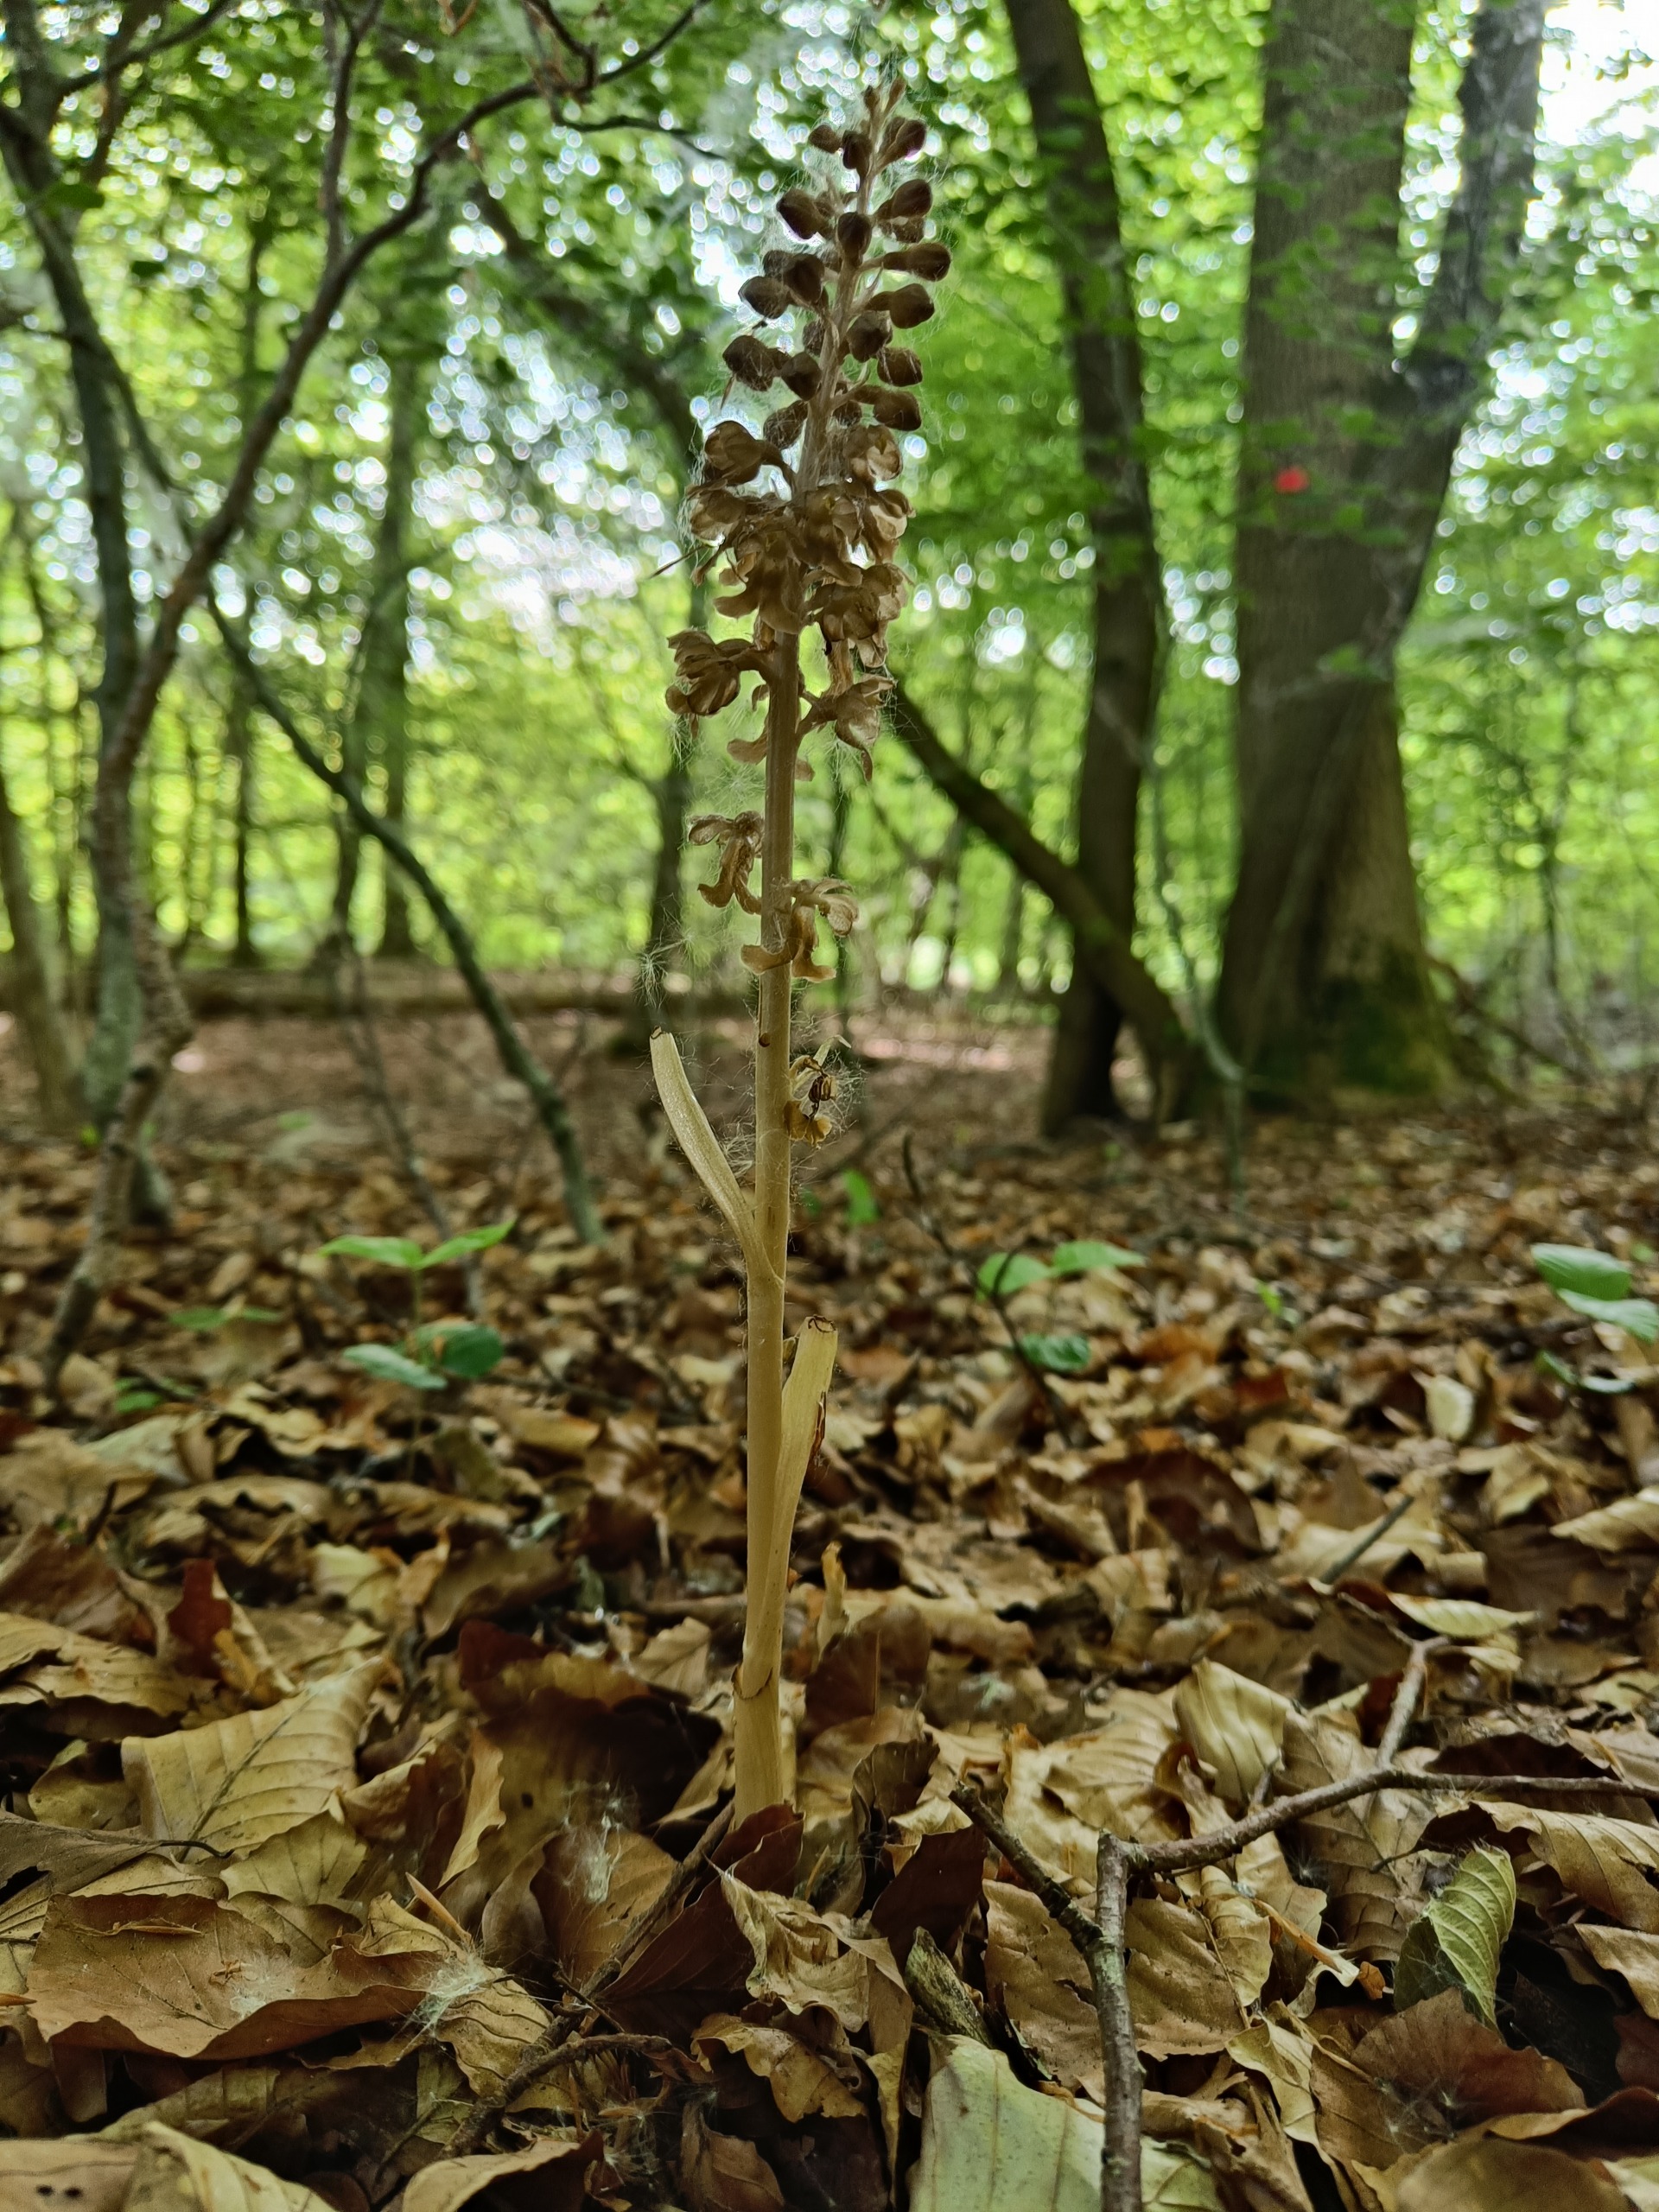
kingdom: Plantae
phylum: Tracheophyta
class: Liliopsida
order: Asparagales
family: Orchidaceae
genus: Neottia
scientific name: Neottia nidus-avis
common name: Rederod
